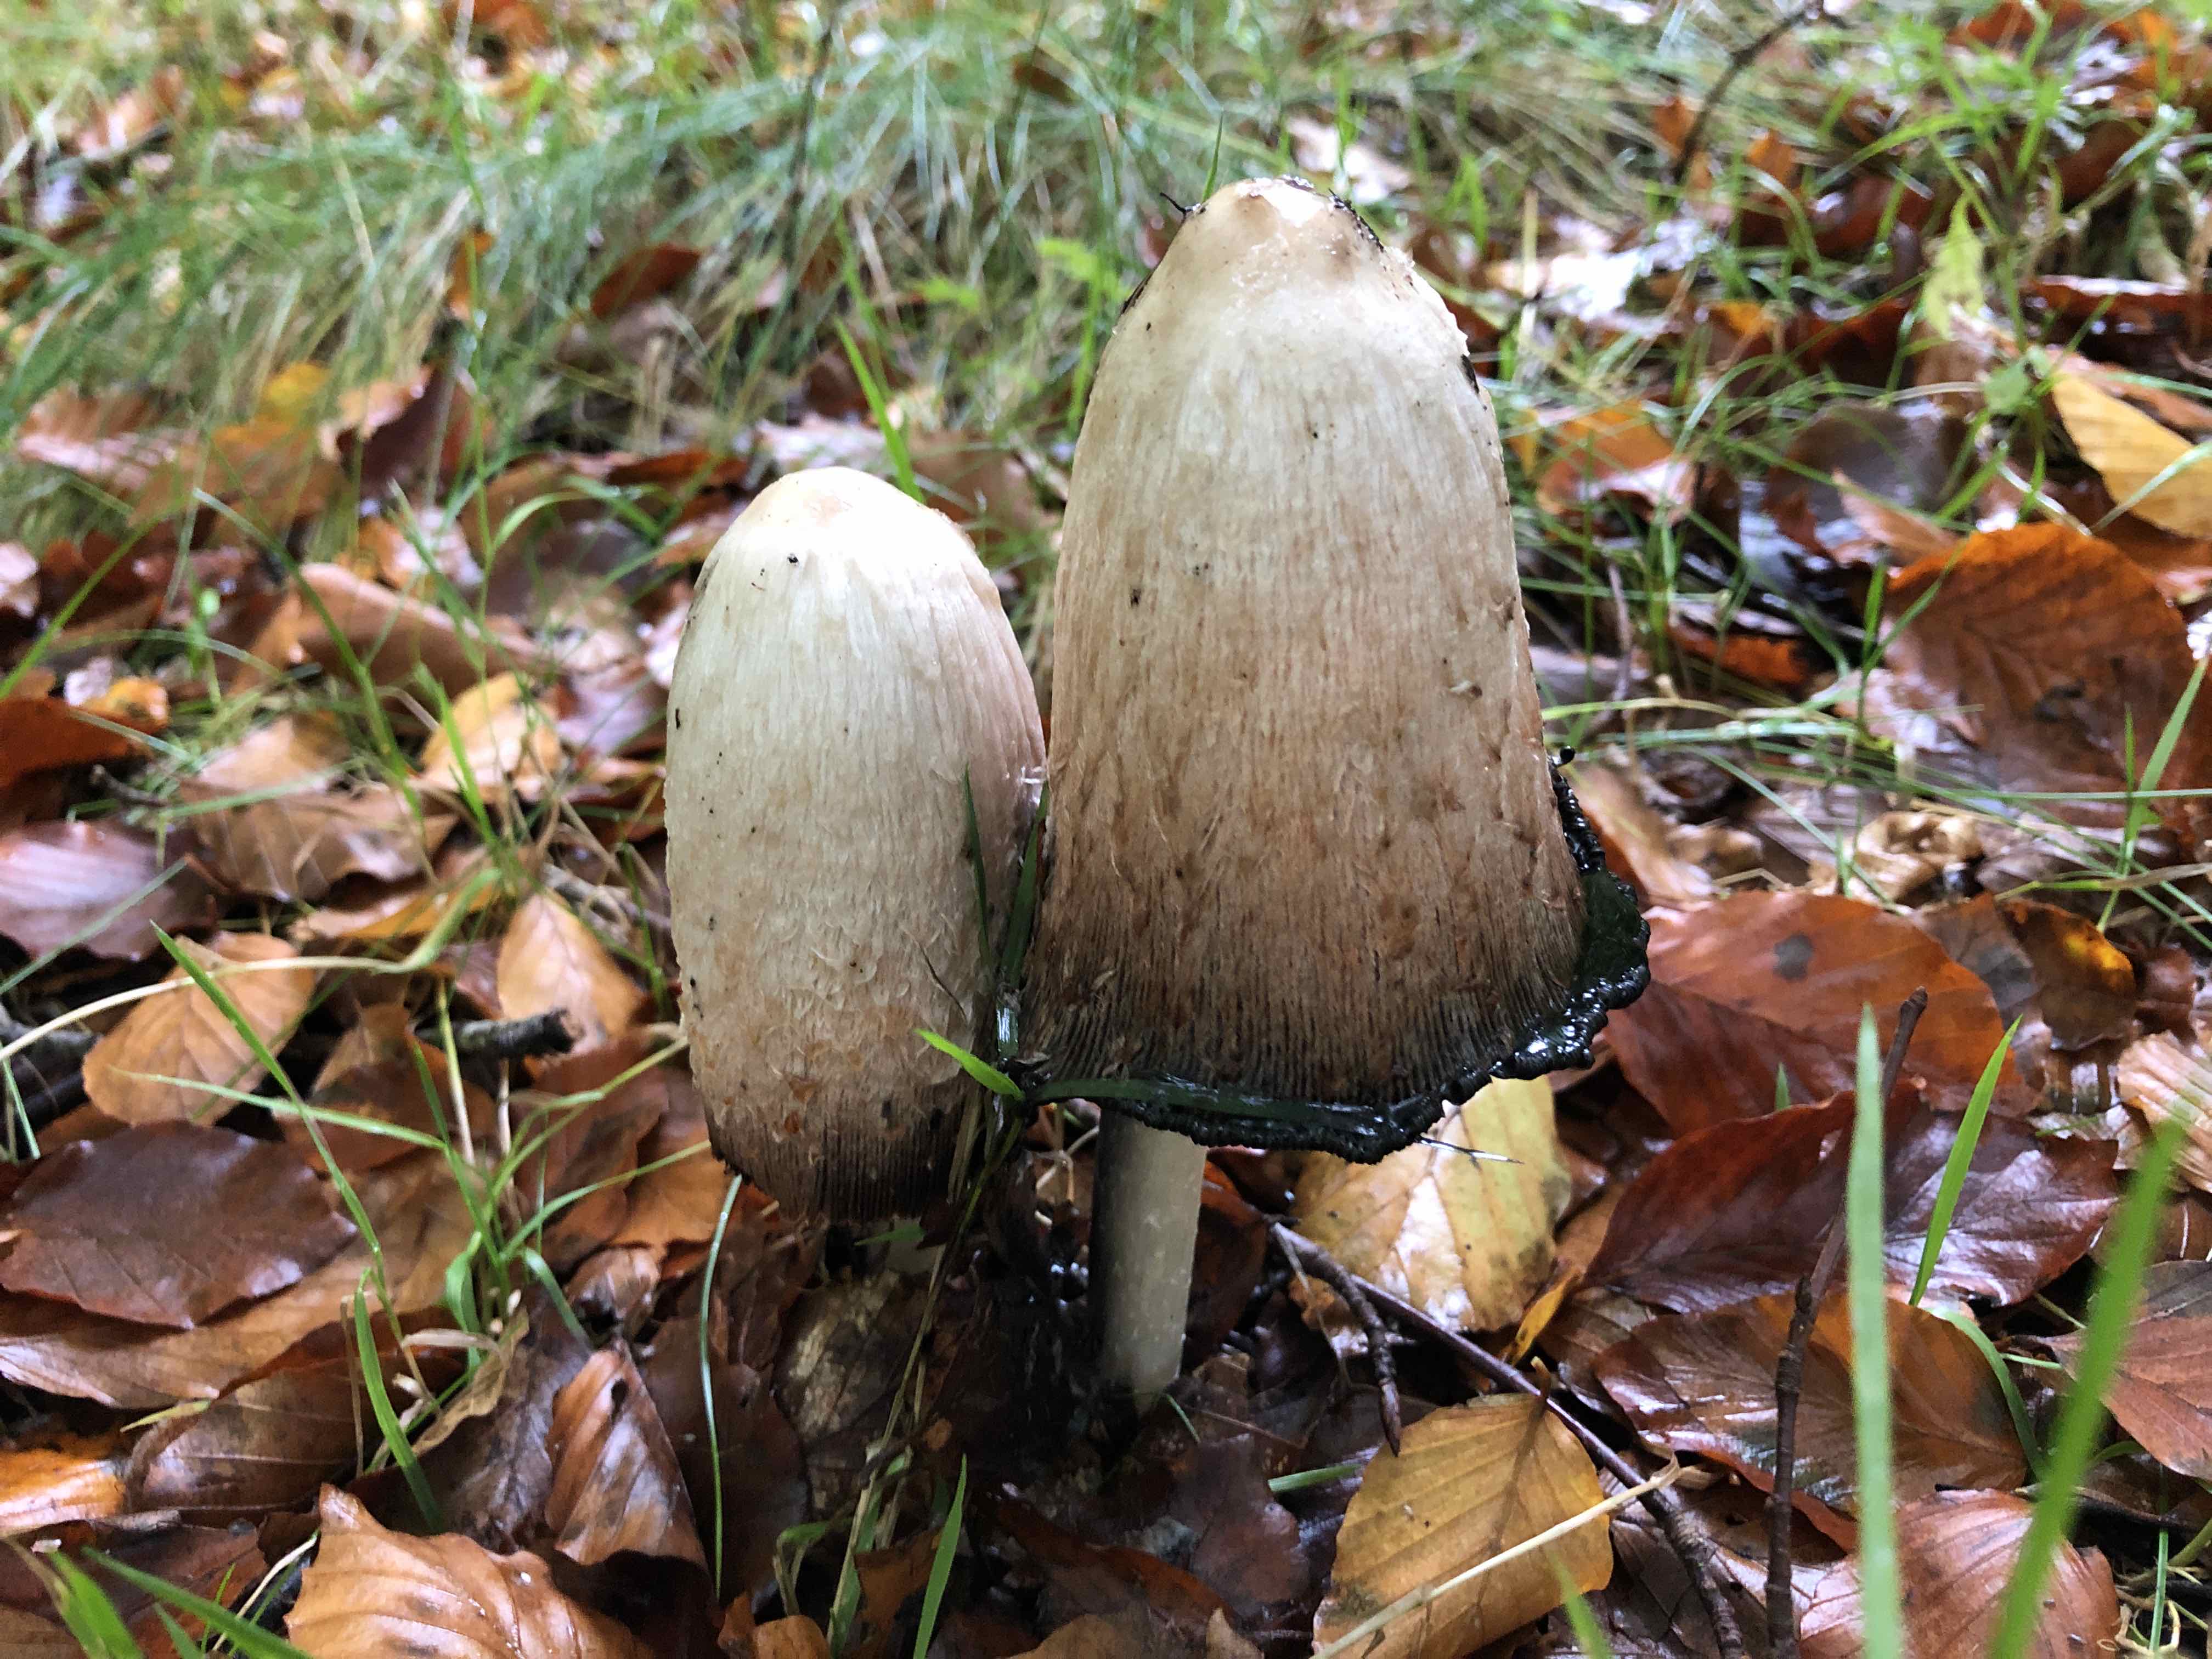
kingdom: Fungi
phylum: Basidiomycota
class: Agaricomycetes
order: Agaricales
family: Agaricaceae
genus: Coprinus
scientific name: Coprinus comatus
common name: stor parykhat
